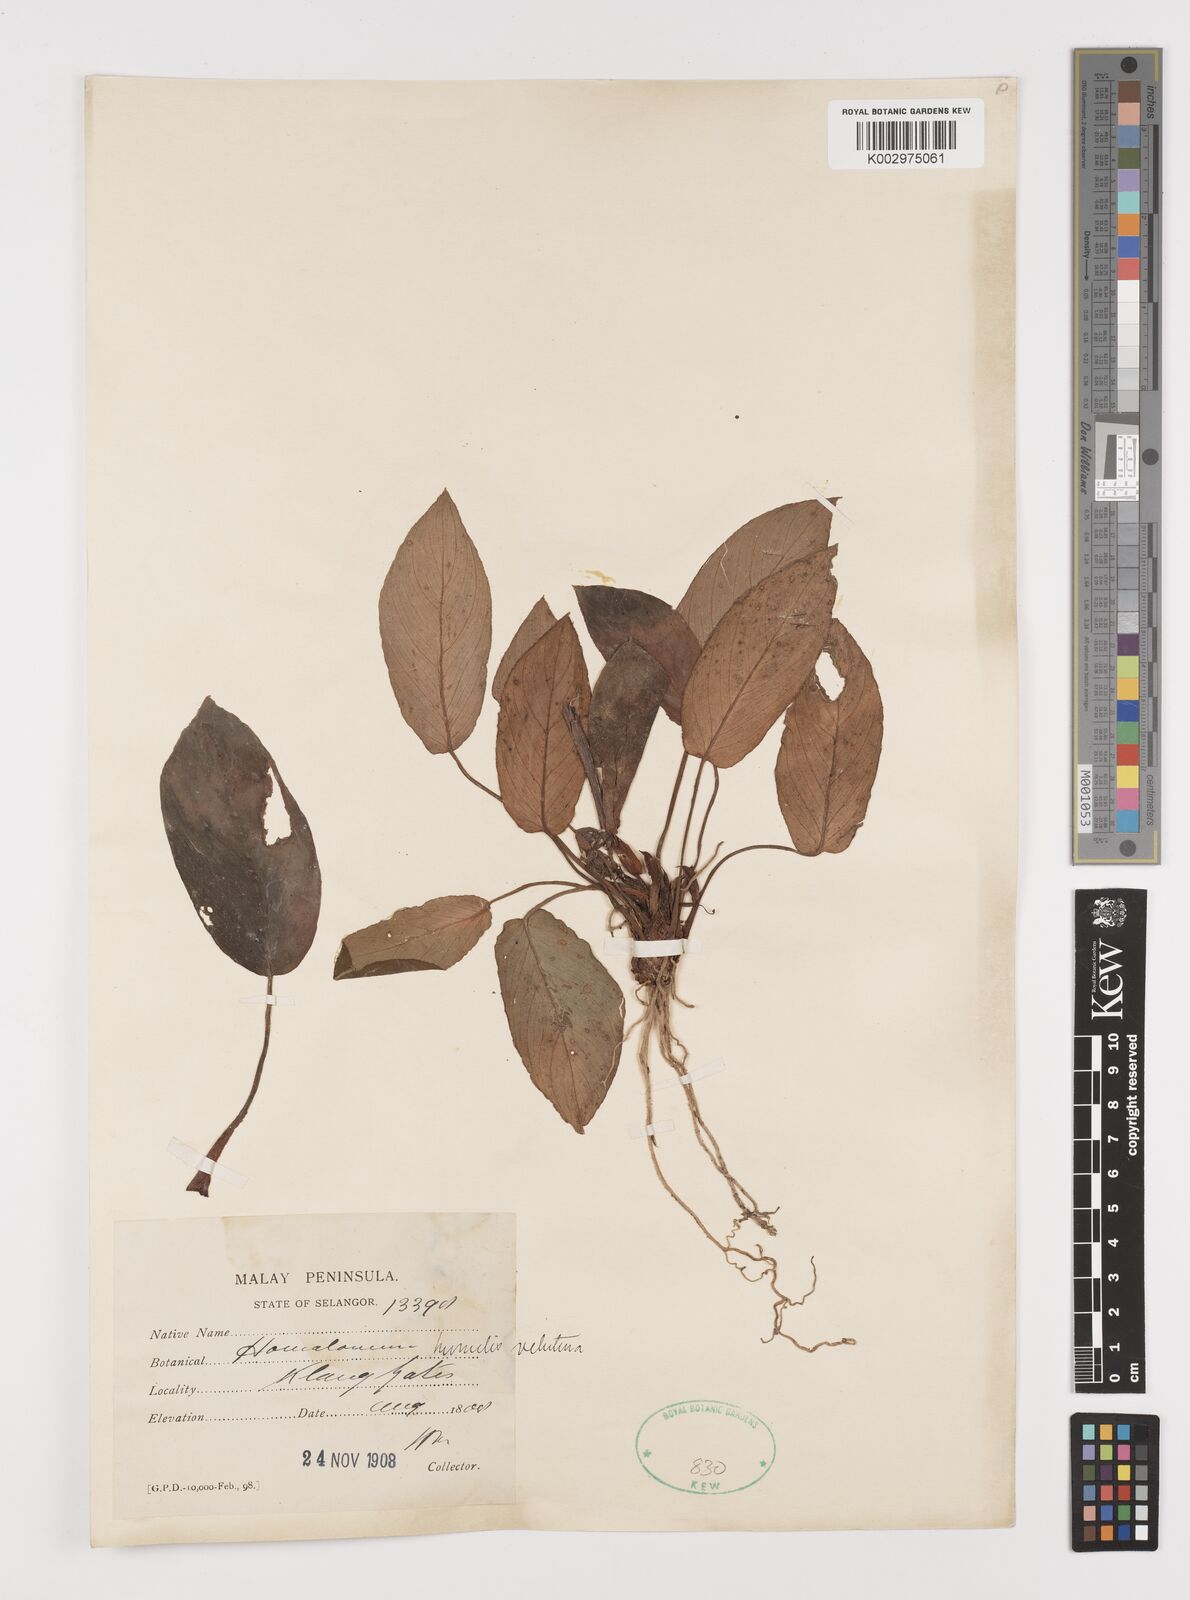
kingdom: Plantae
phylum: Tracheophyta
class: Liliopsida
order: Alismatales
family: Araceae
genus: Homalomena
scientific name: Homalomena humilis
